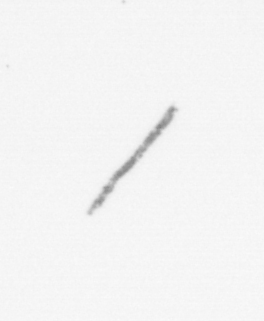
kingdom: Chromista
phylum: Ochrophyta
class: Bacillariophyceae
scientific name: Bacillariophyceae
